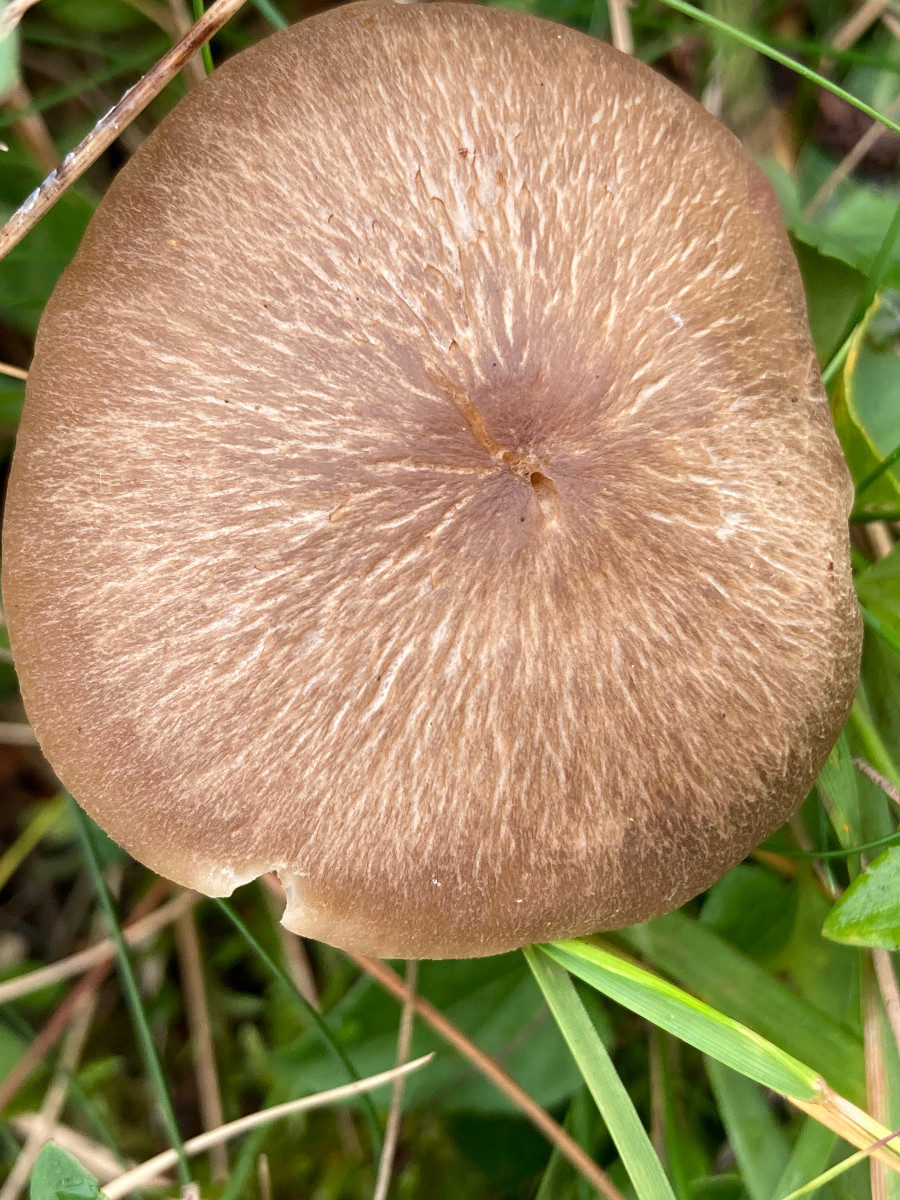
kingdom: Fungi
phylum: Basidiomycota
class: Agaricomycetes
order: Agaricales
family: Hygrophoraceae
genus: Neohygrocybe
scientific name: Neohygrocybe nitrata
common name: stinkende vokshat
